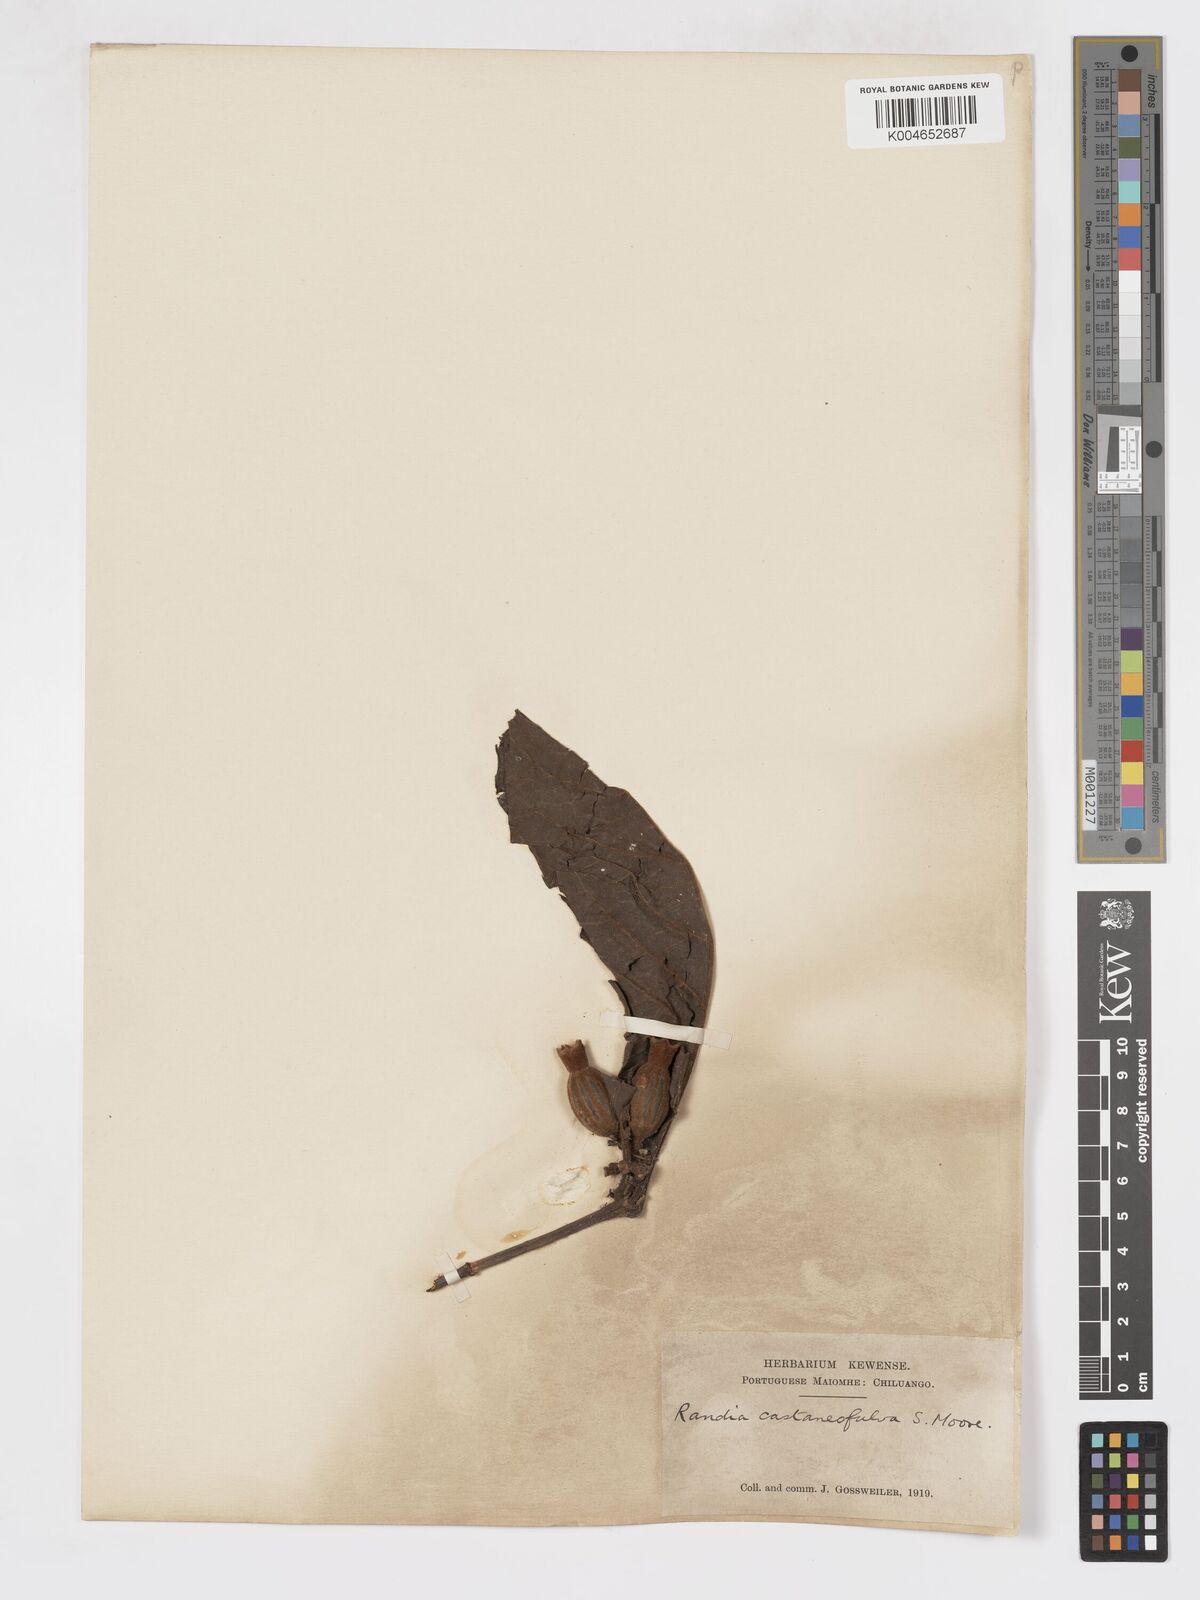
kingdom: Plantae
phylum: Tracheophyta
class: Magnoliopsida
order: Gentianales
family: Rubiaceae
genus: Aoranthe
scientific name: Aoranthe castaneofulva
